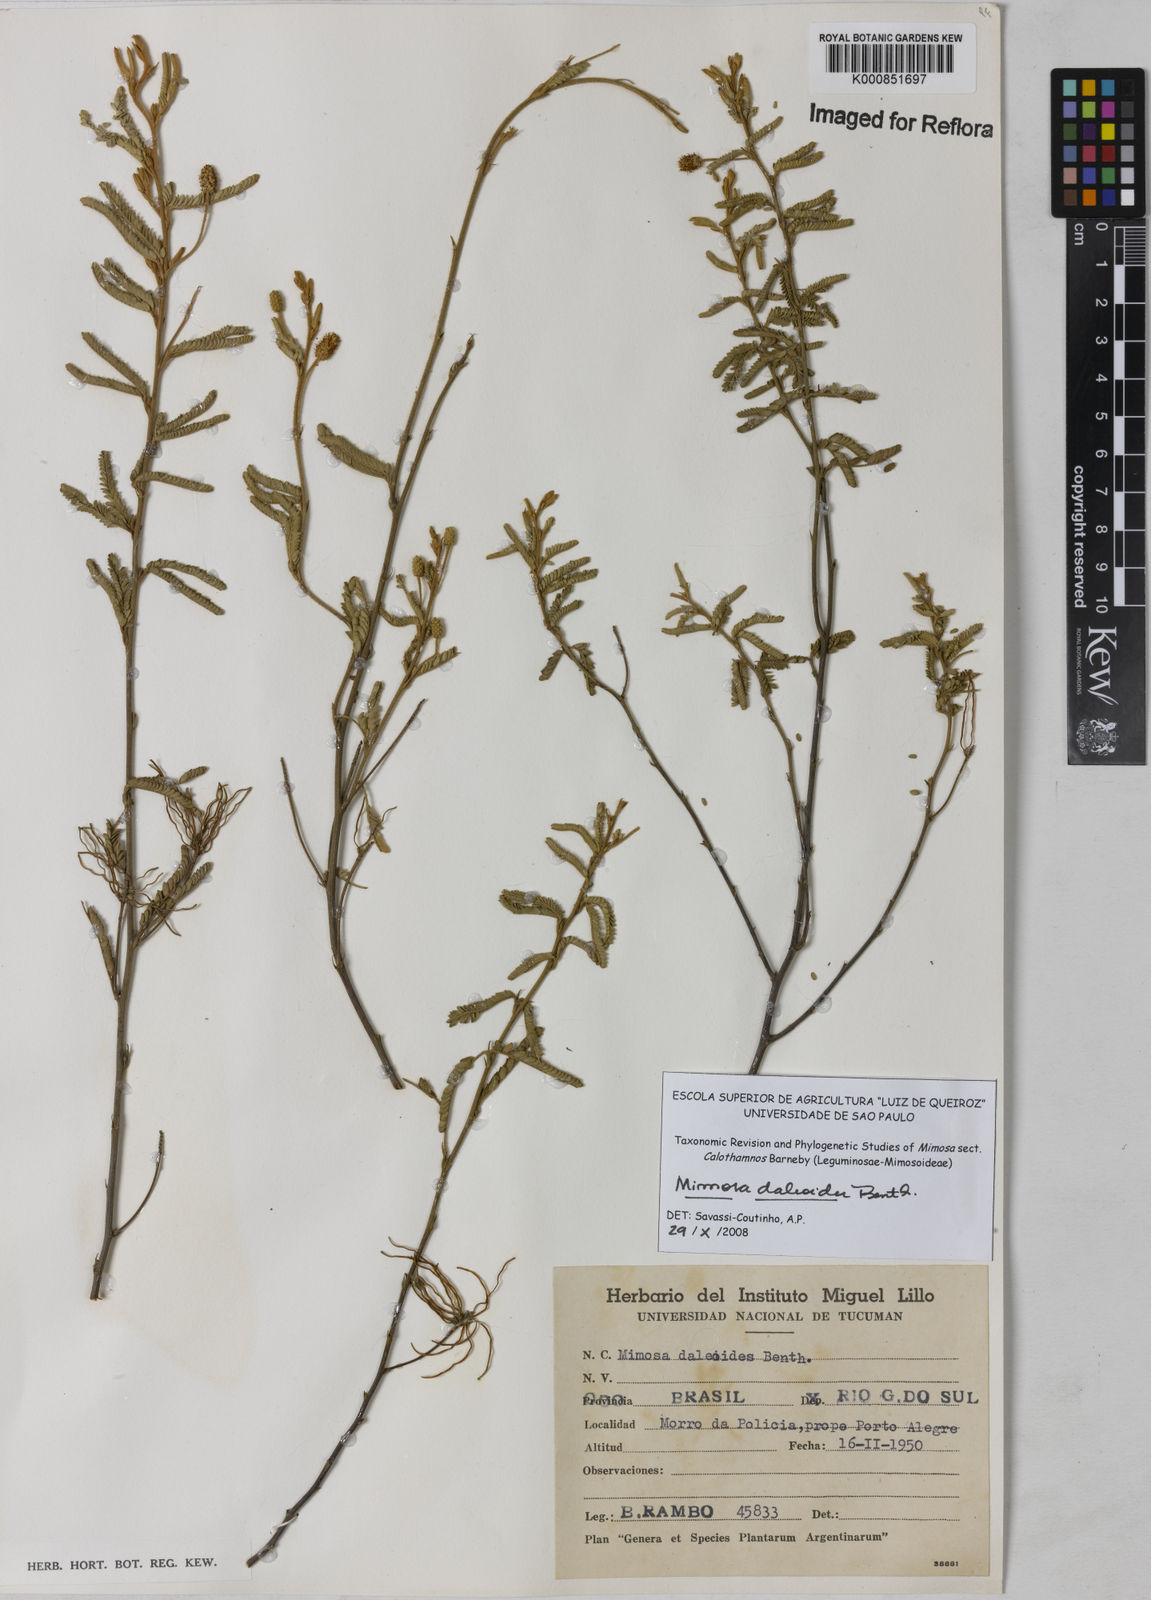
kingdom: Plantae
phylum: Tracheophyta
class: Magnoliopsida
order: Fabales
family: Fabaceae
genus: Mimosa
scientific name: Mimosa daleoides
